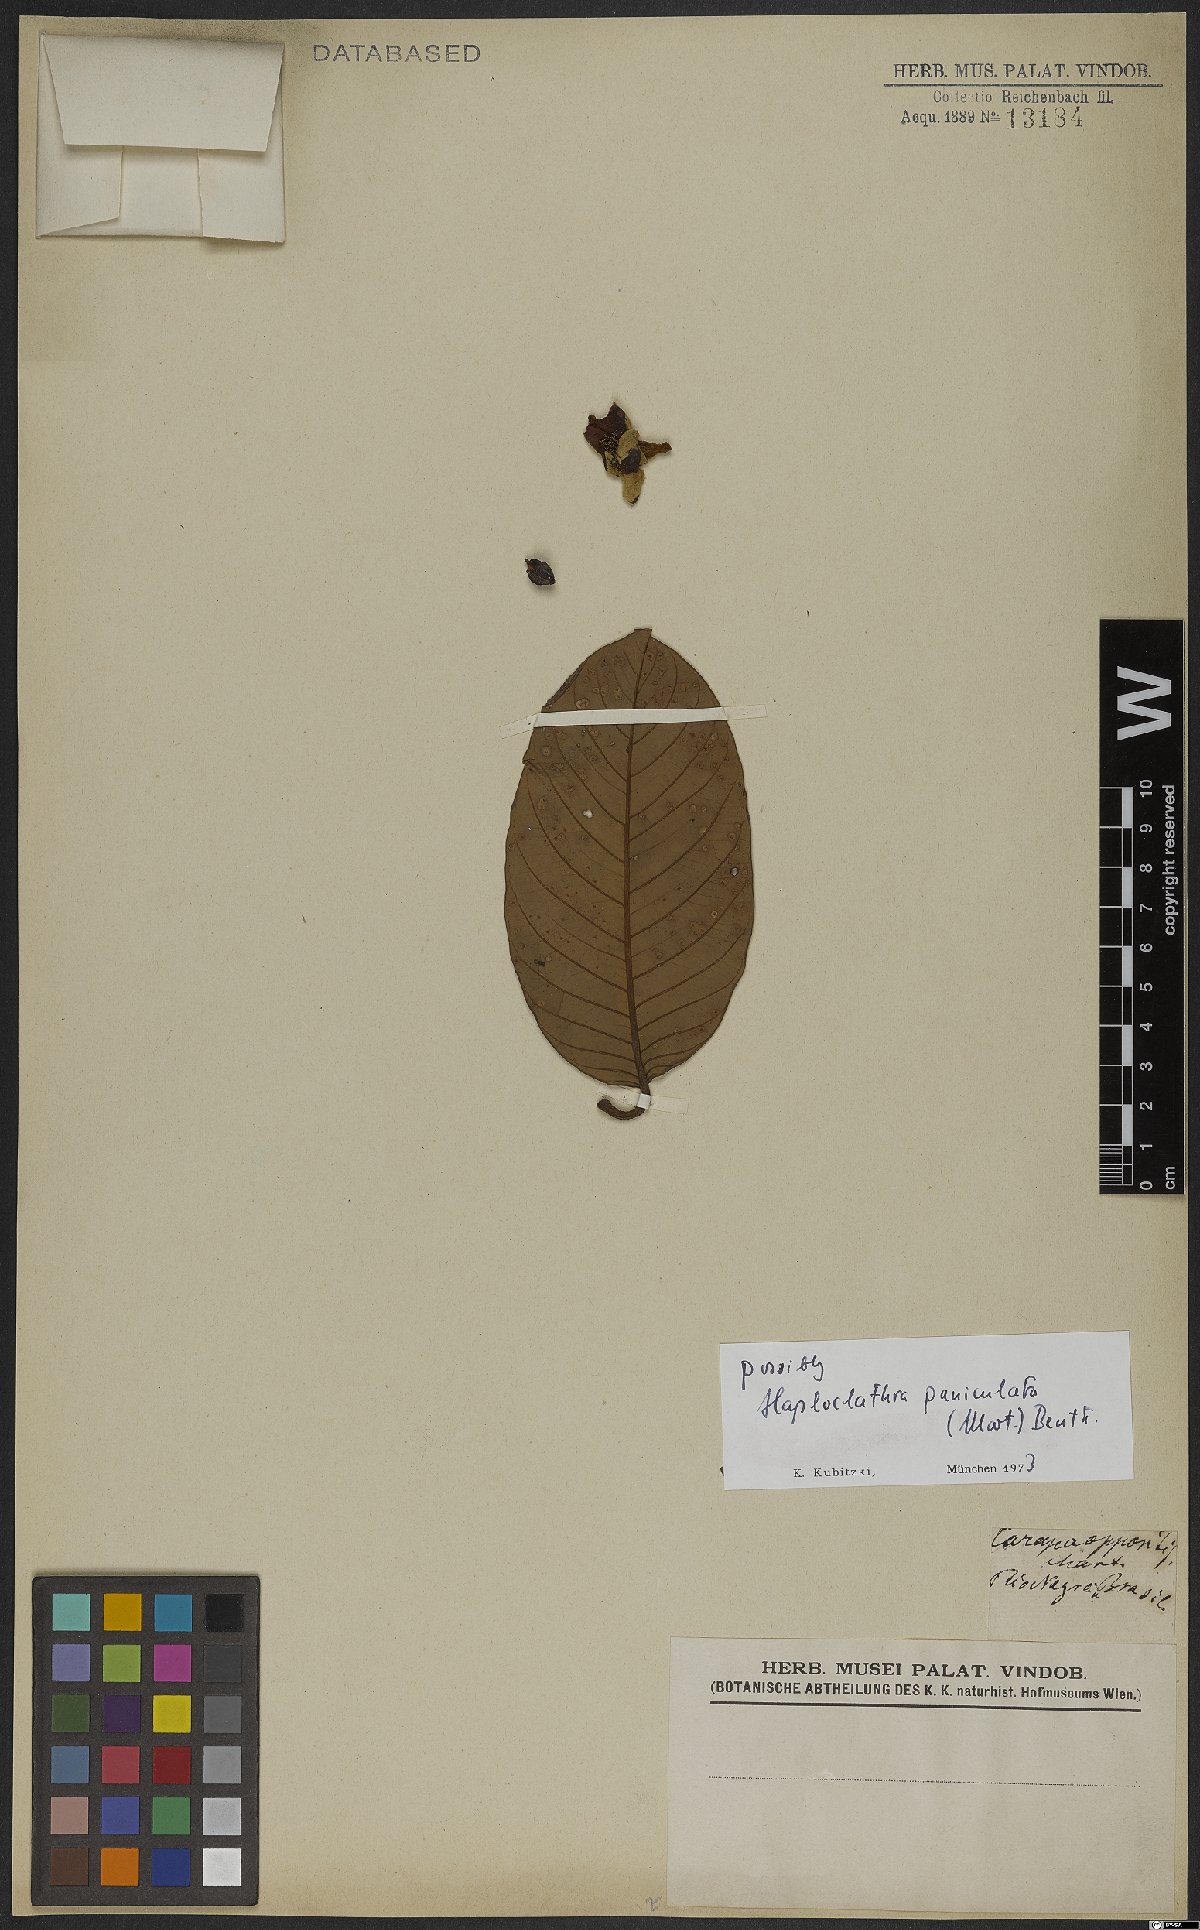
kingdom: Plantae
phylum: Tracheophyta
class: Magnoliopsida
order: Malpighiales
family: Calophyllaceae
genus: Haploclathra
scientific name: Haploclathra paniculata
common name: Red-wood
